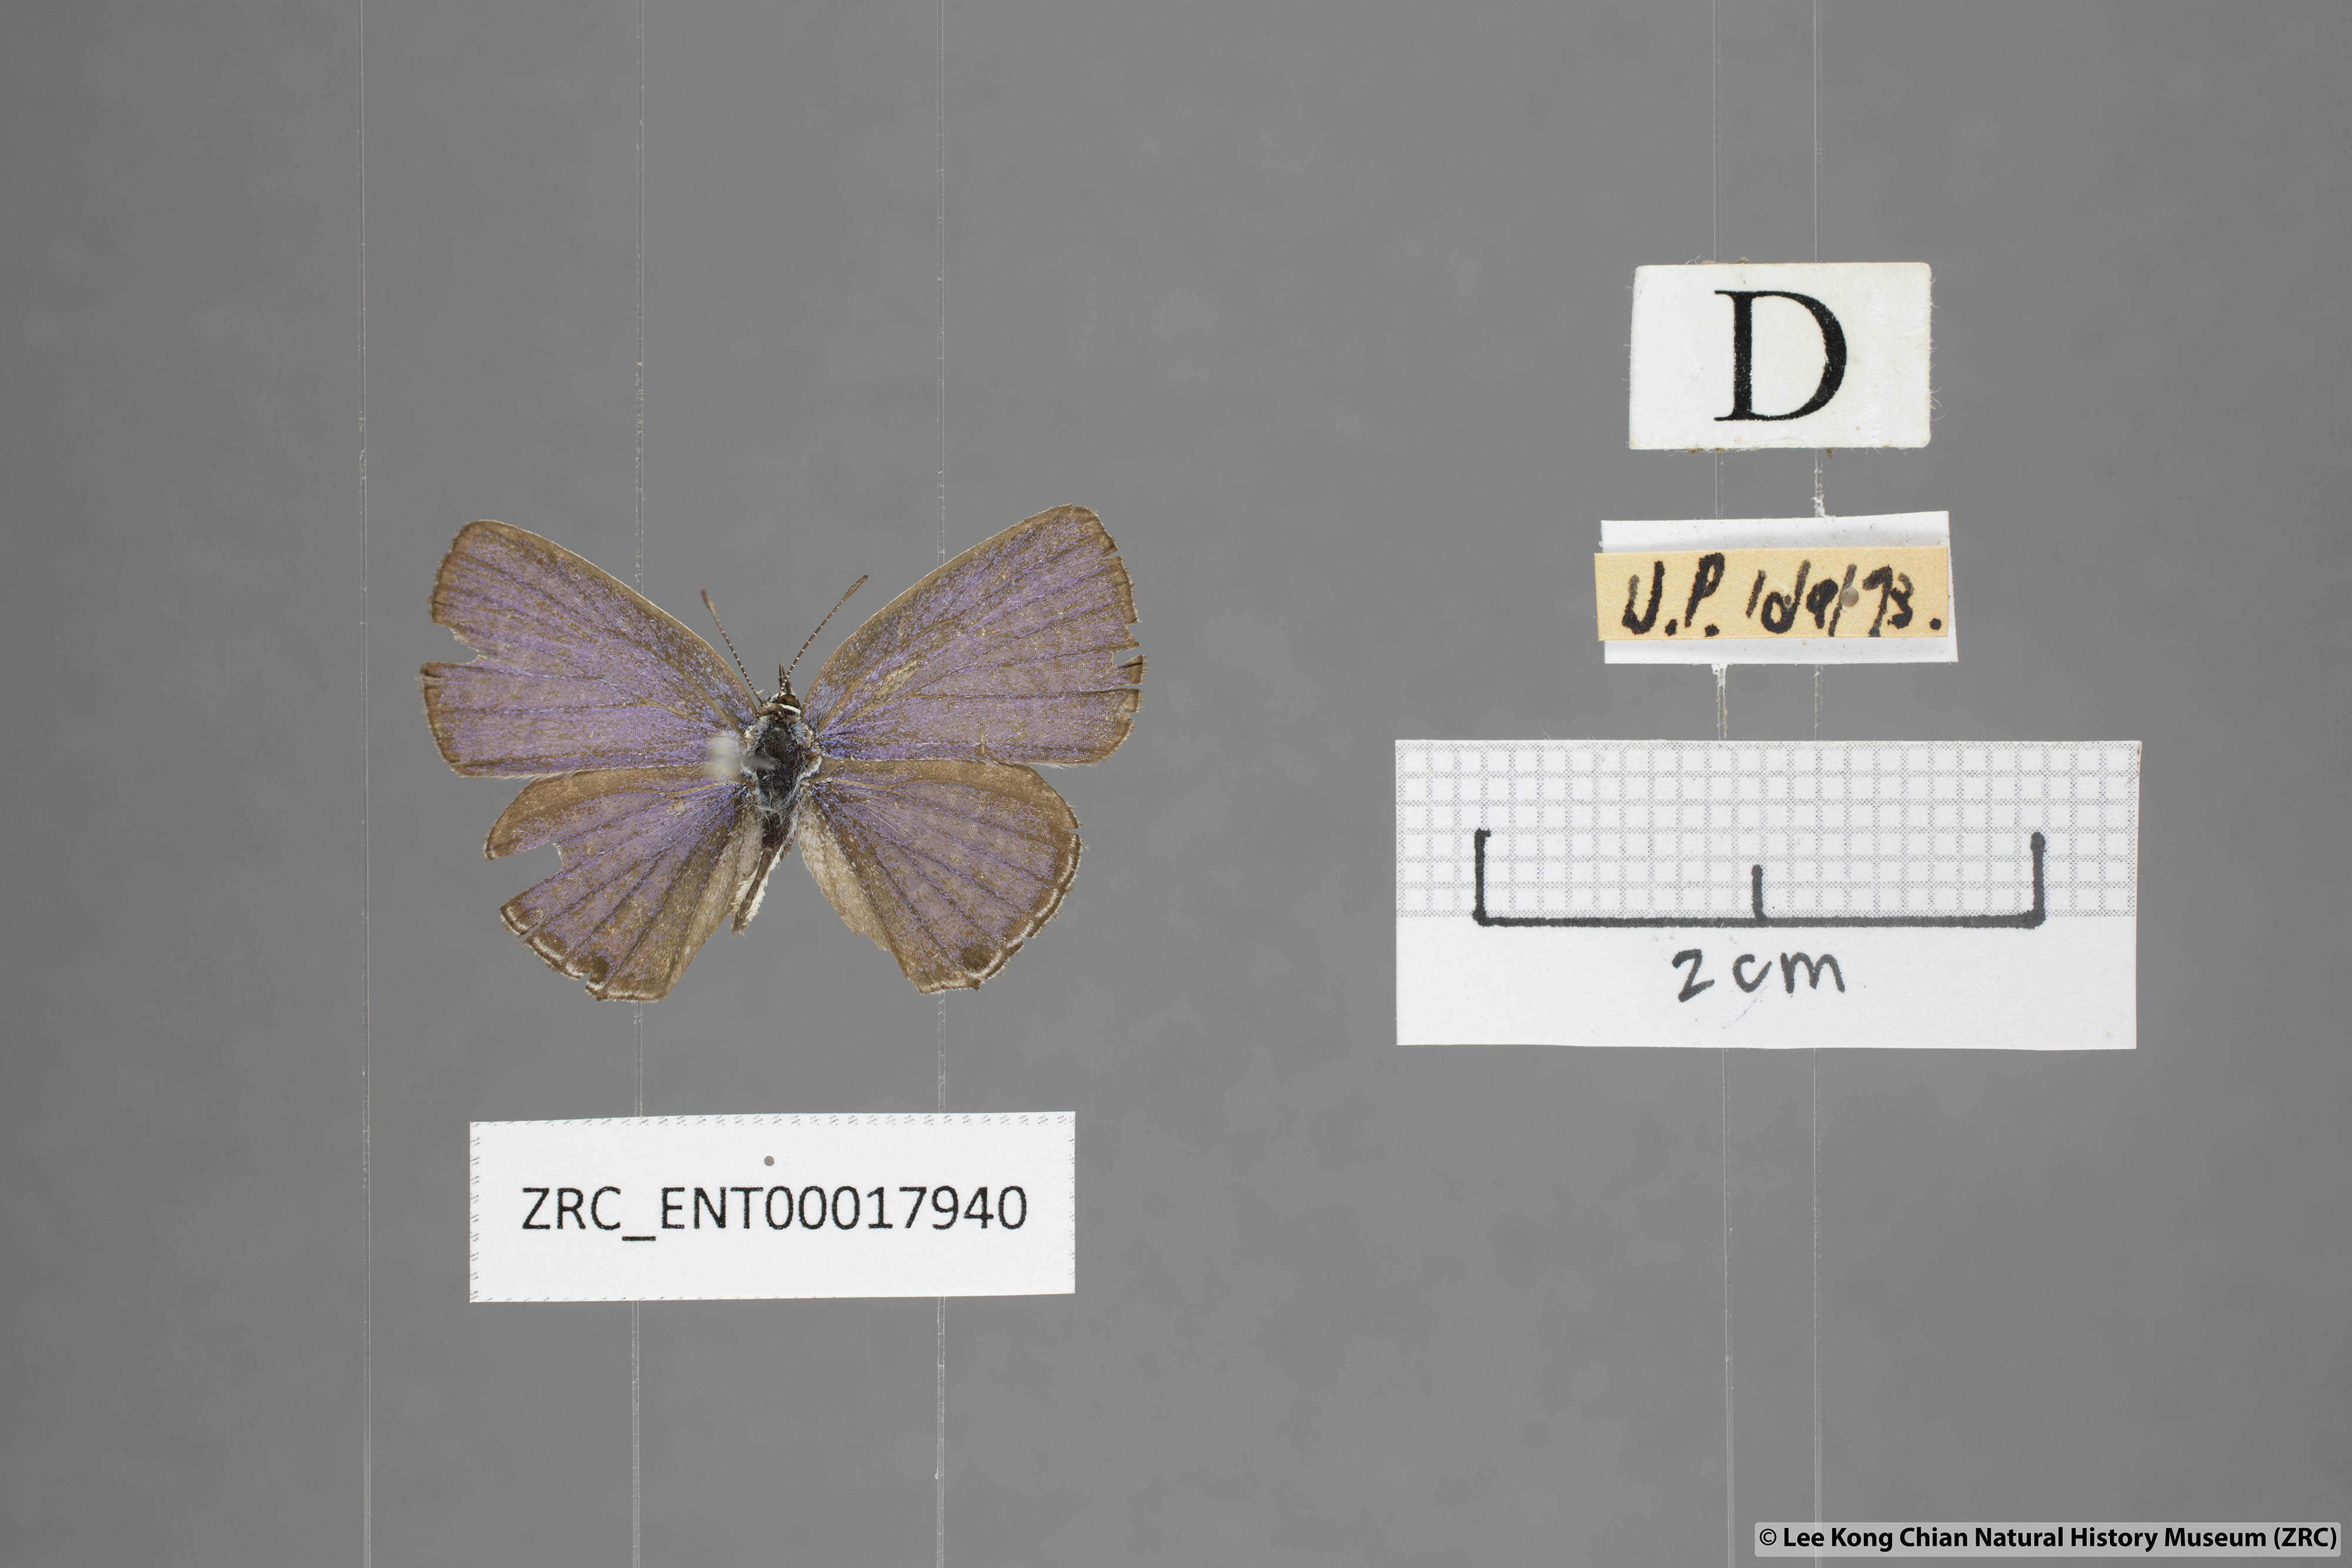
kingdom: Animalia
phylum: Arthropoda
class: Insecta
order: Lepidoptera
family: Lycaenidae
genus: Edales
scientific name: Edales pandava
